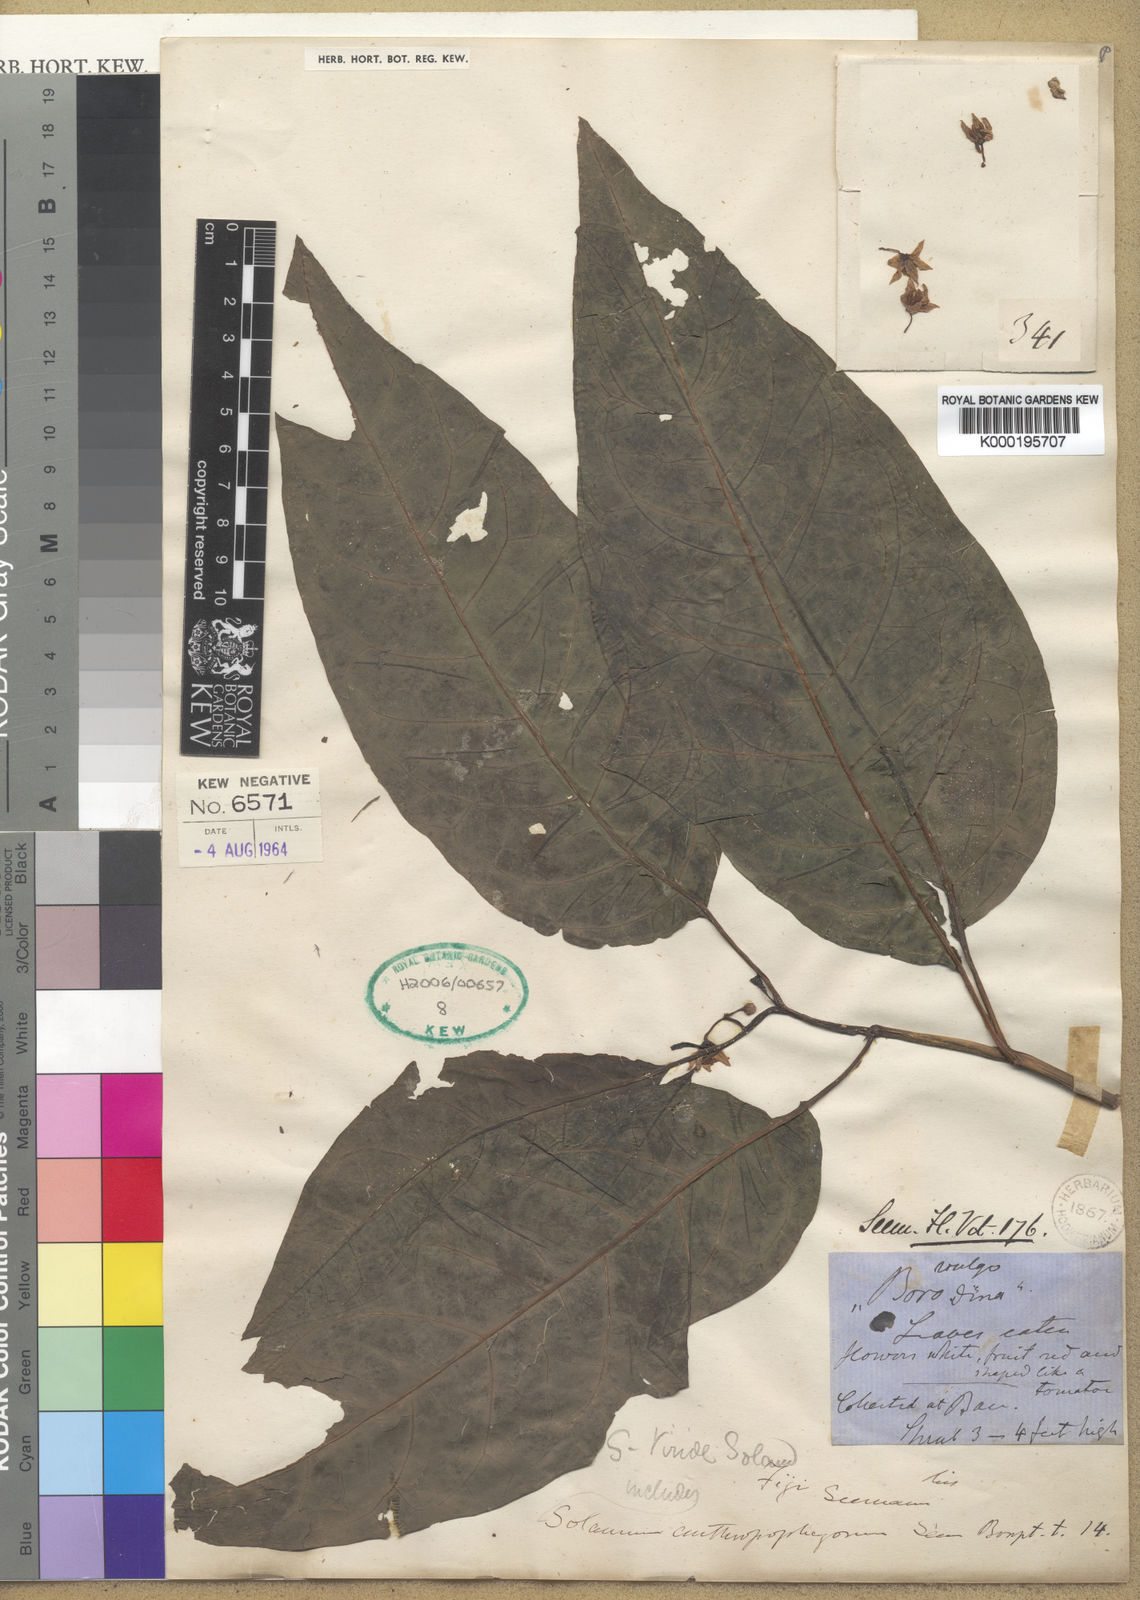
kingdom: Plantae
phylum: Tracheophyta
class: Magnoliopsida
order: Solanales
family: Solanaceae
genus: Solanum
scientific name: Solanum viride
